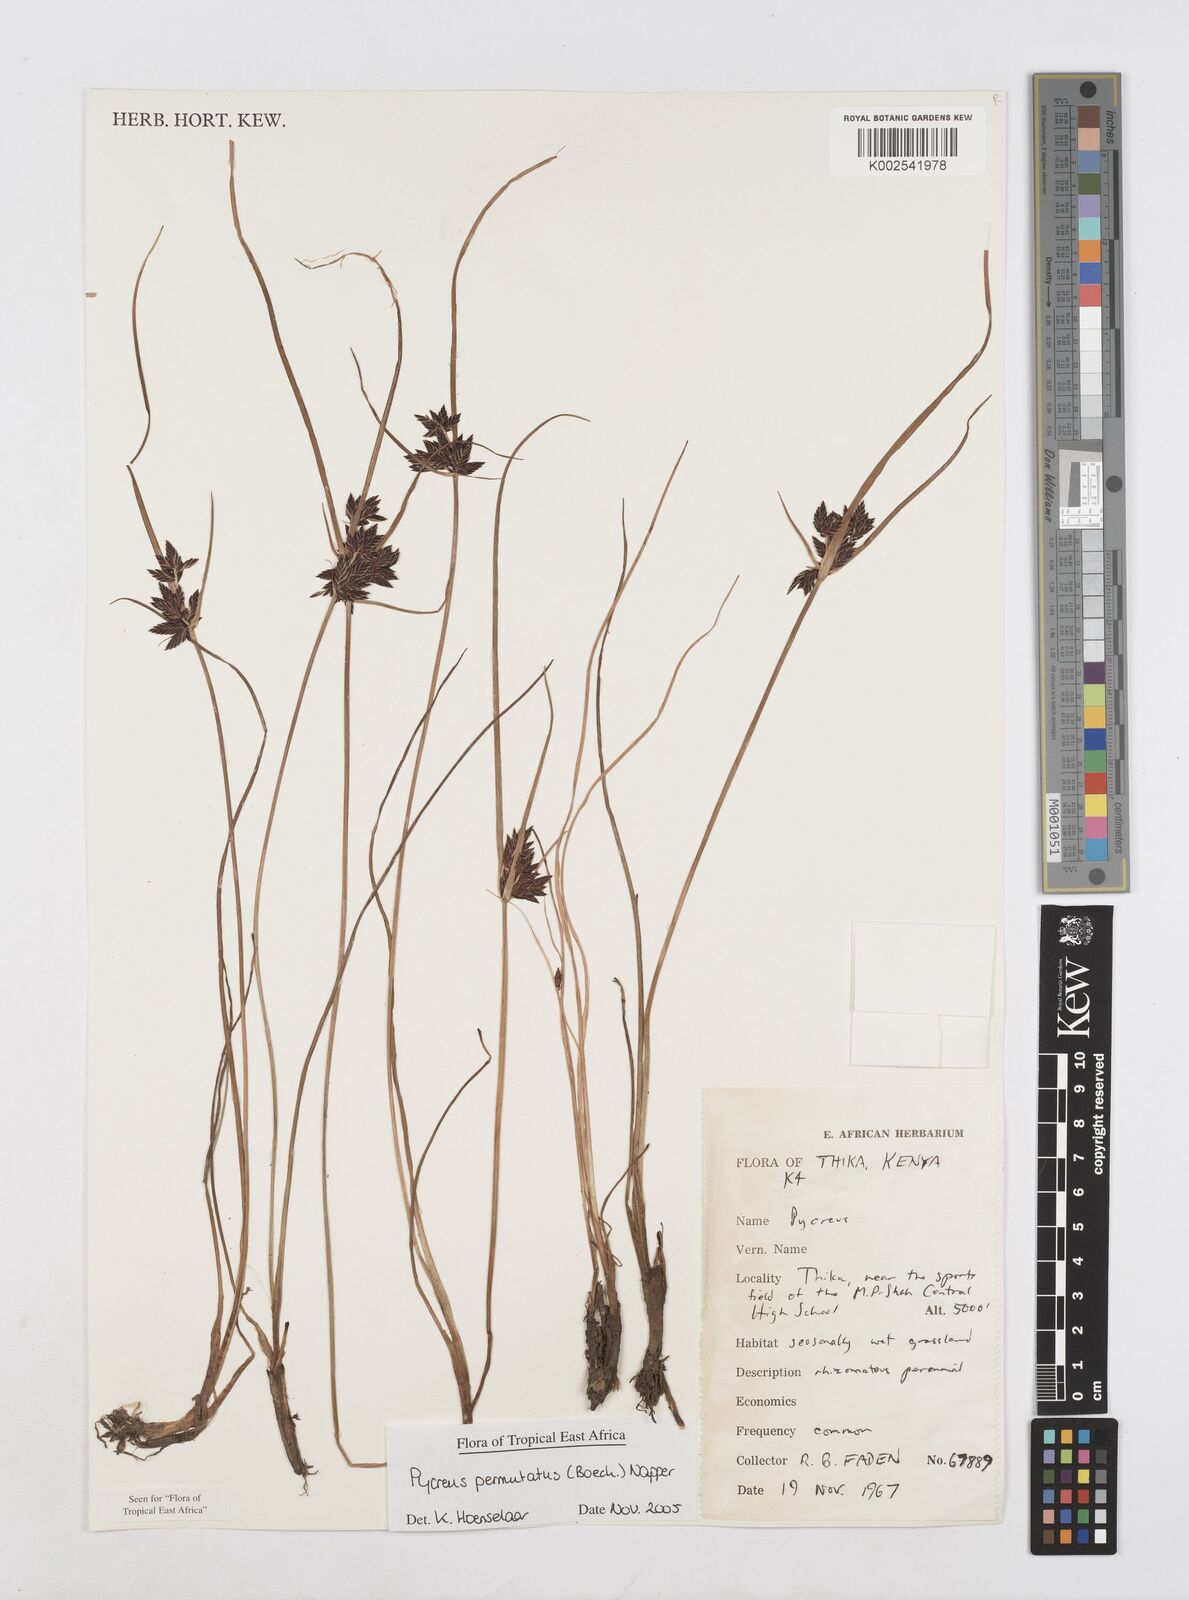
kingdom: Plantae
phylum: Tracheophyta
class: Liliopsida
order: Poales
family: Cyperaceae
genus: Cyperus
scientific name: Cyperus nigricans
